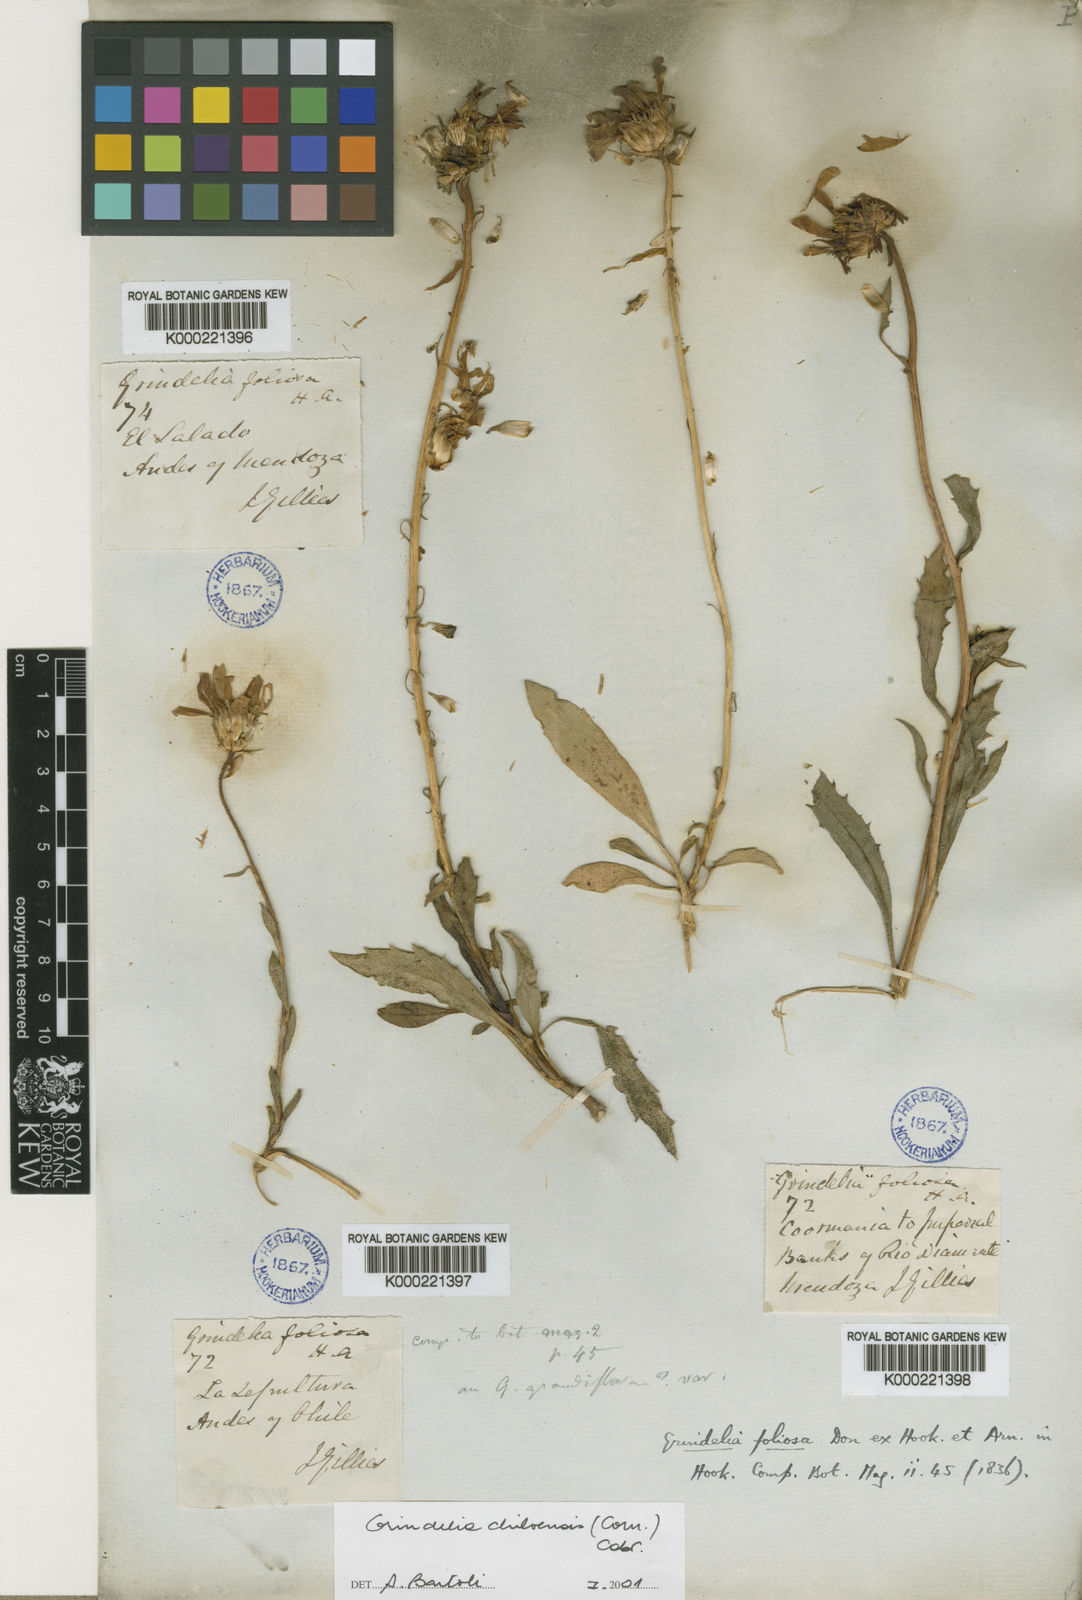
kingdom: Plantae
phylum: Tracheophyta
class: Magnoliopsida
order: Asterales
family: Asteraceae
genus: Grindelia
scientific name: Grindelia chiloensis
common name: Shrubby gumweed
